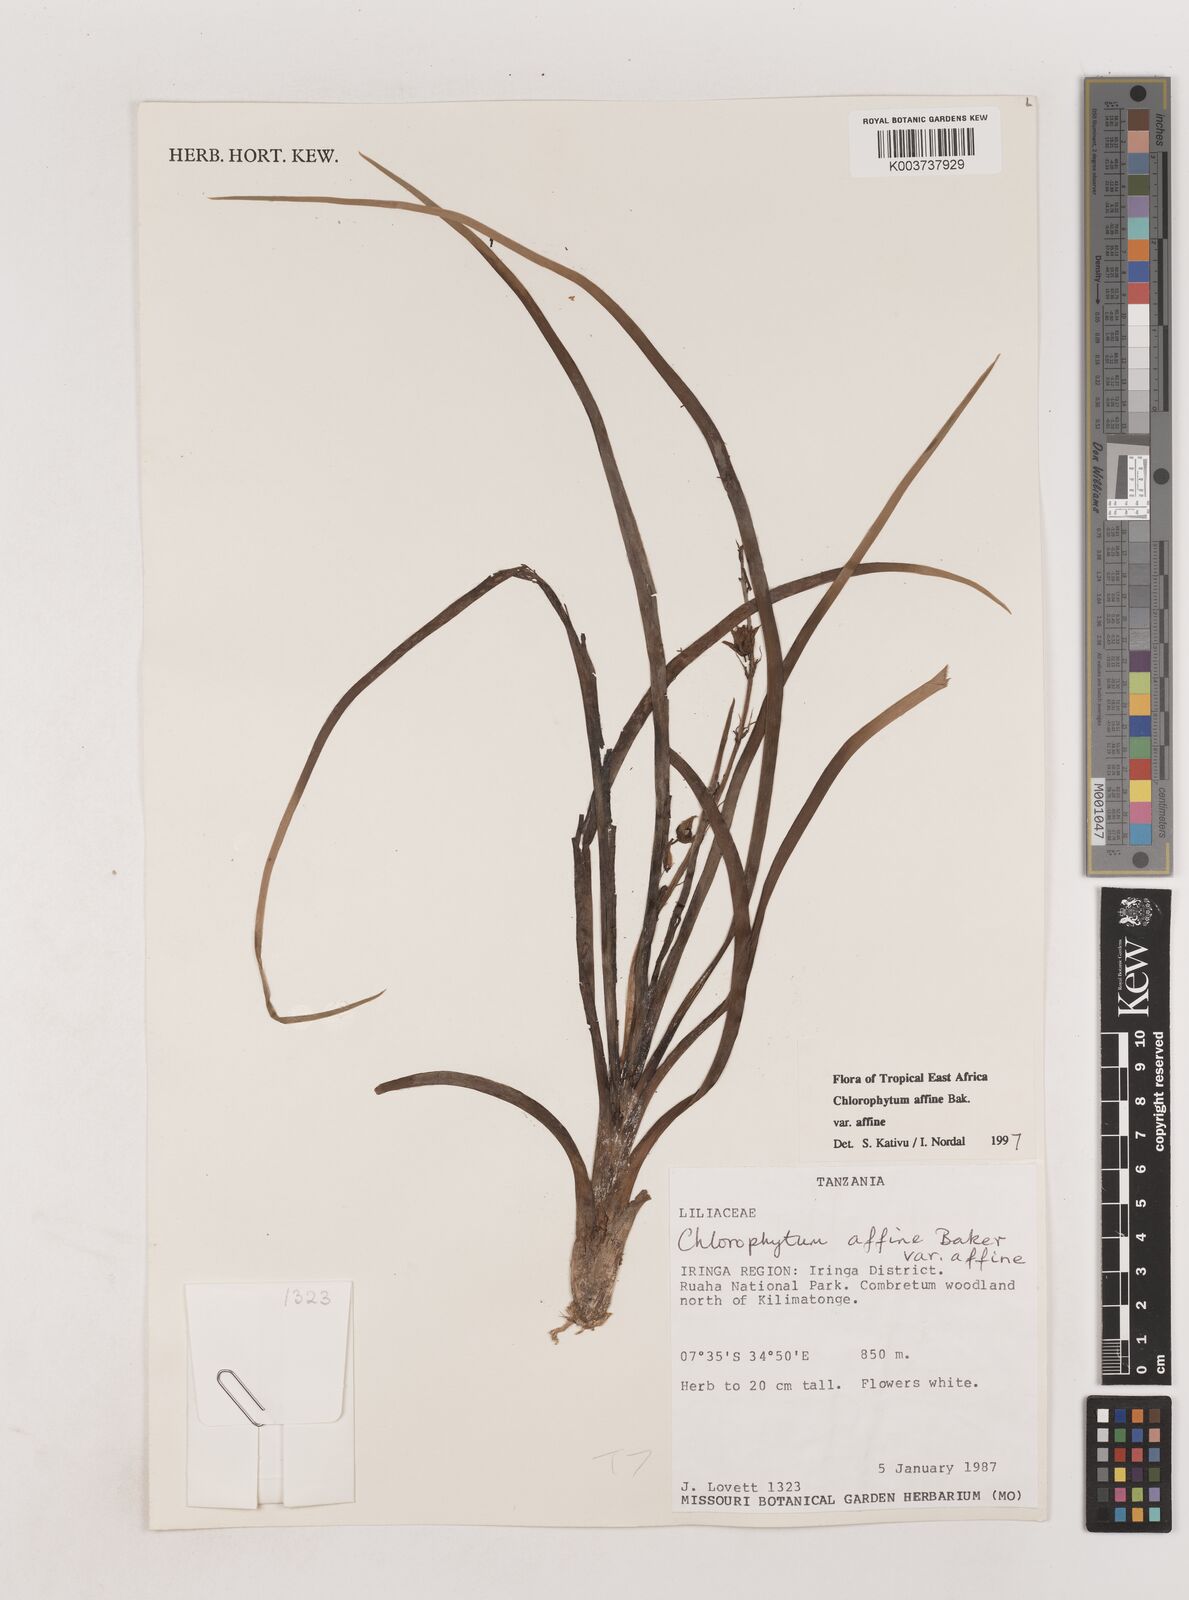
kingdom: Plantae
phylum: Tracheophyta
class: Liliopsida
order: Asparagales
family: Asparagaceae
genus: Chlorophytum
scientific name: Chlorophytum affine
